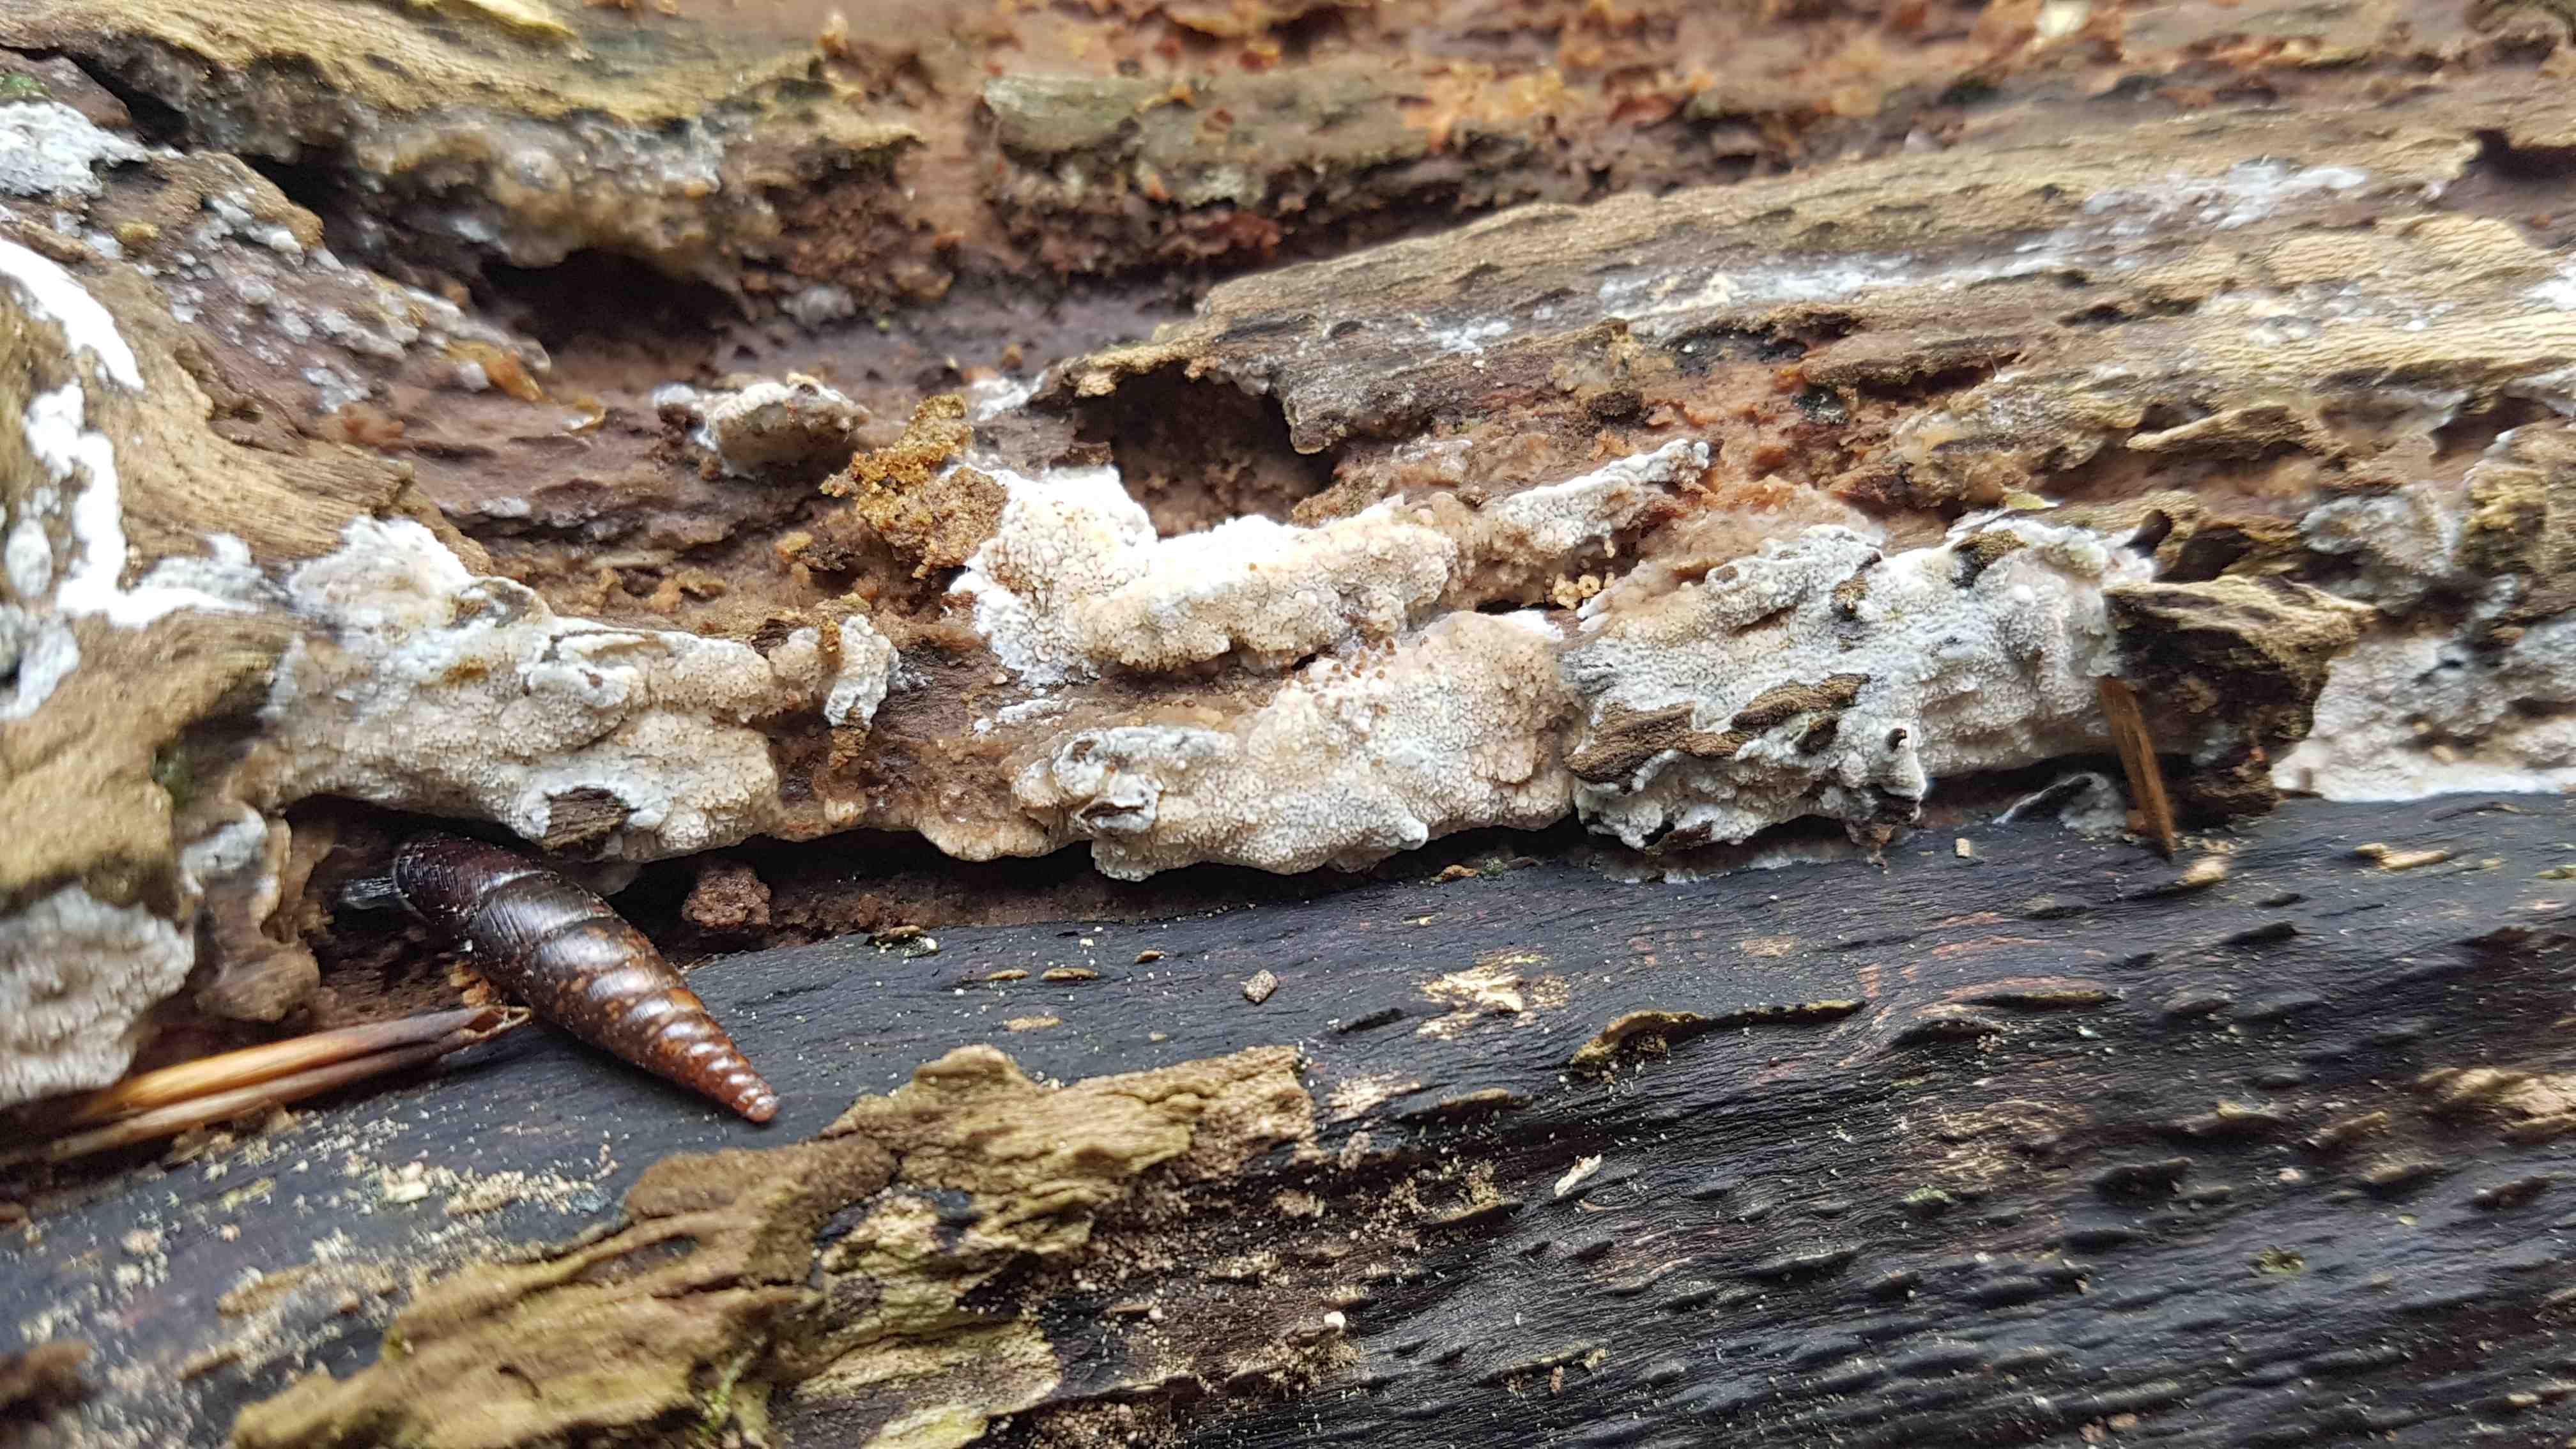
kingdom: Fungi
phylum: Basidiomycota
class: Agaricomycetes
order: Polyporales
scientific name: Polyporales
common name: poresvampordenen
